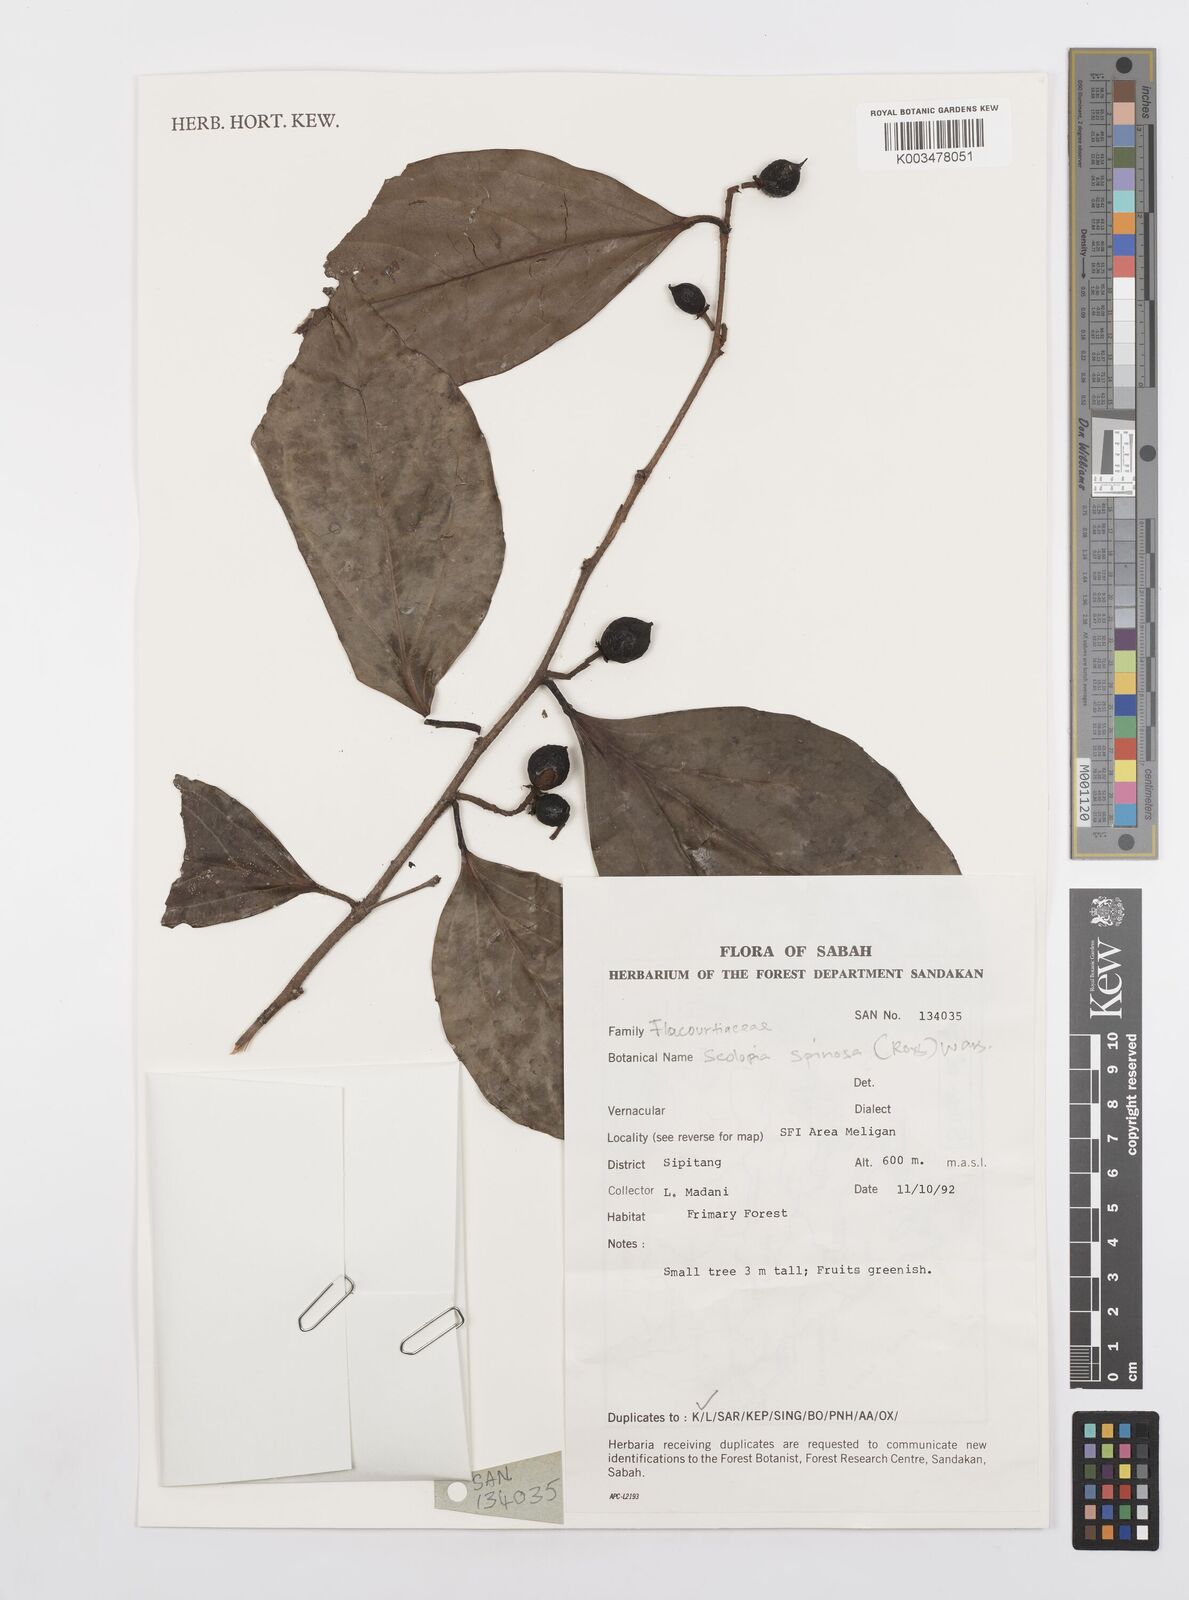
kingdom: Plantae
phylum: Tracheophyta
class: Magnoliopsida
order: Malpighiales
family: Salicaceae
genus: Scolopia
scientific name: Scolopia spinosa
